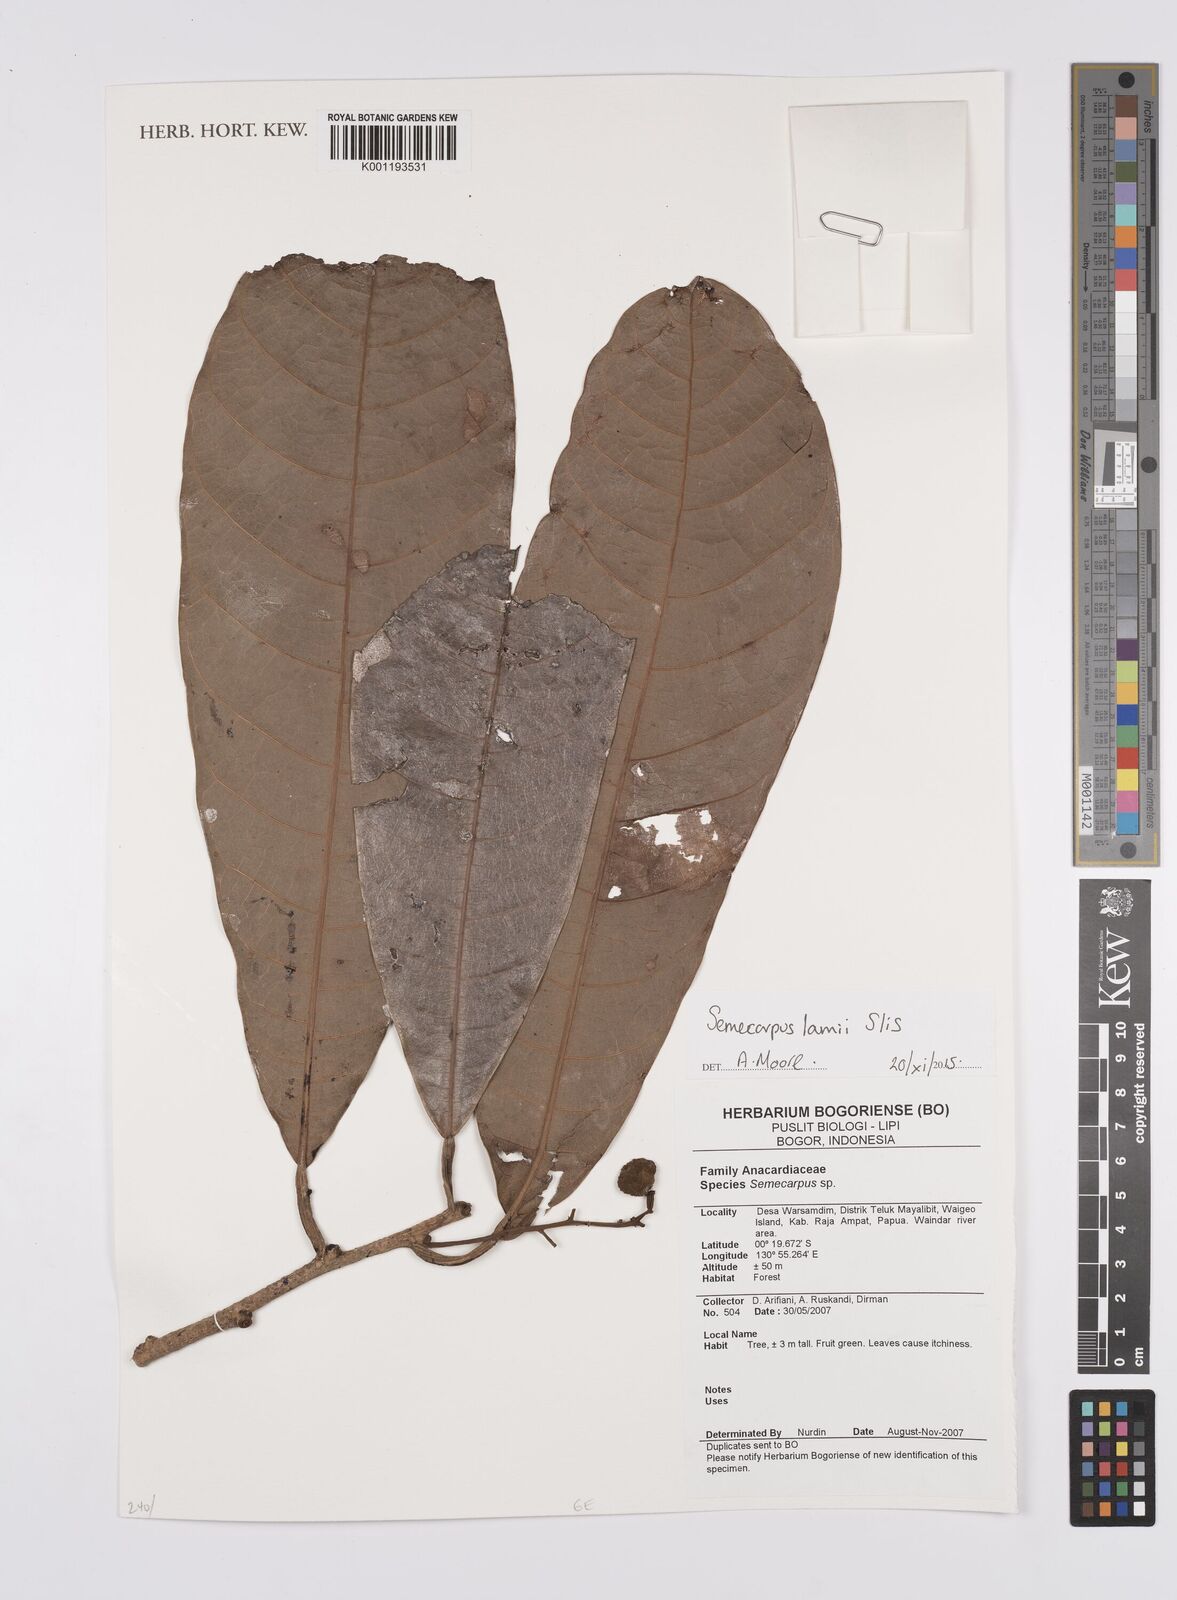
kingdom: Plantae
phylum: Tracheophyta
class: Magnoliopsida
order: Sapindales
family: Anacardiaceae
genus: Semecarpus
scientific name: Semecarpus
